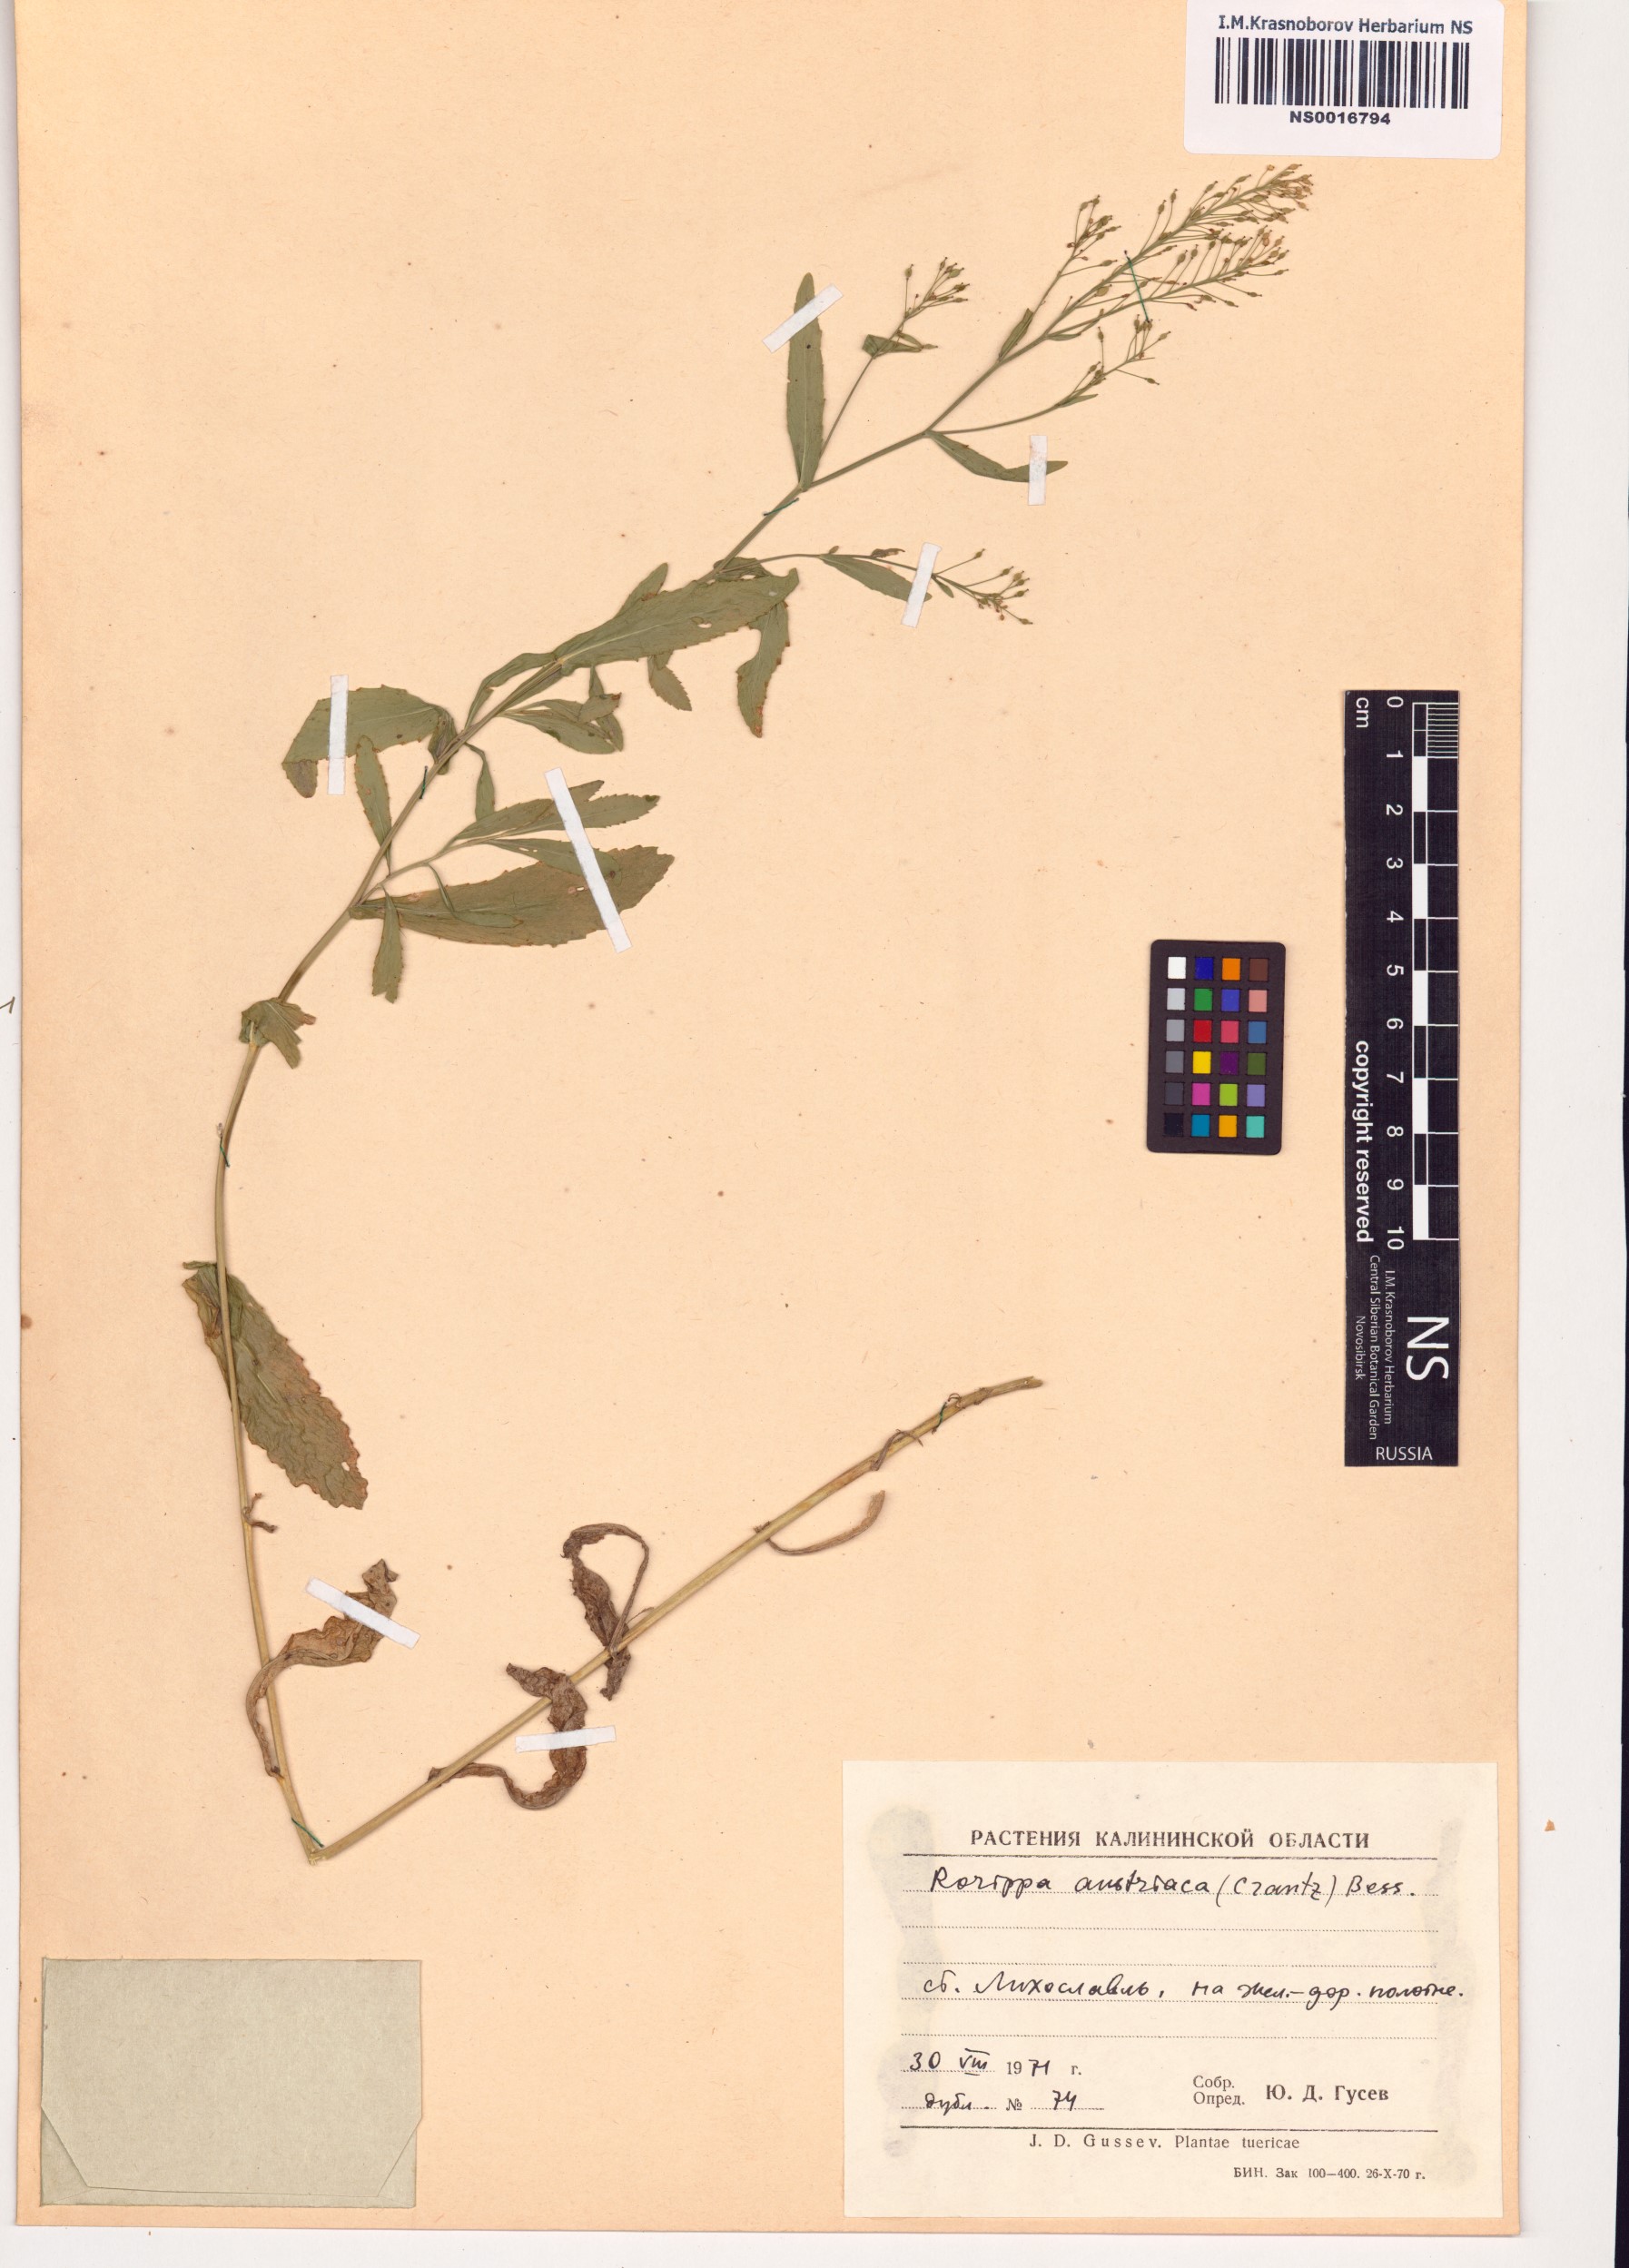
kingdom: Plantae
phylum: Tracheophyta
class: Magnoliopsida
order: Brassicales
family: Brassicaceae
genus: Rorippa
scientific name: Rorippa austriaca
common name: Austrian yellow-cress
